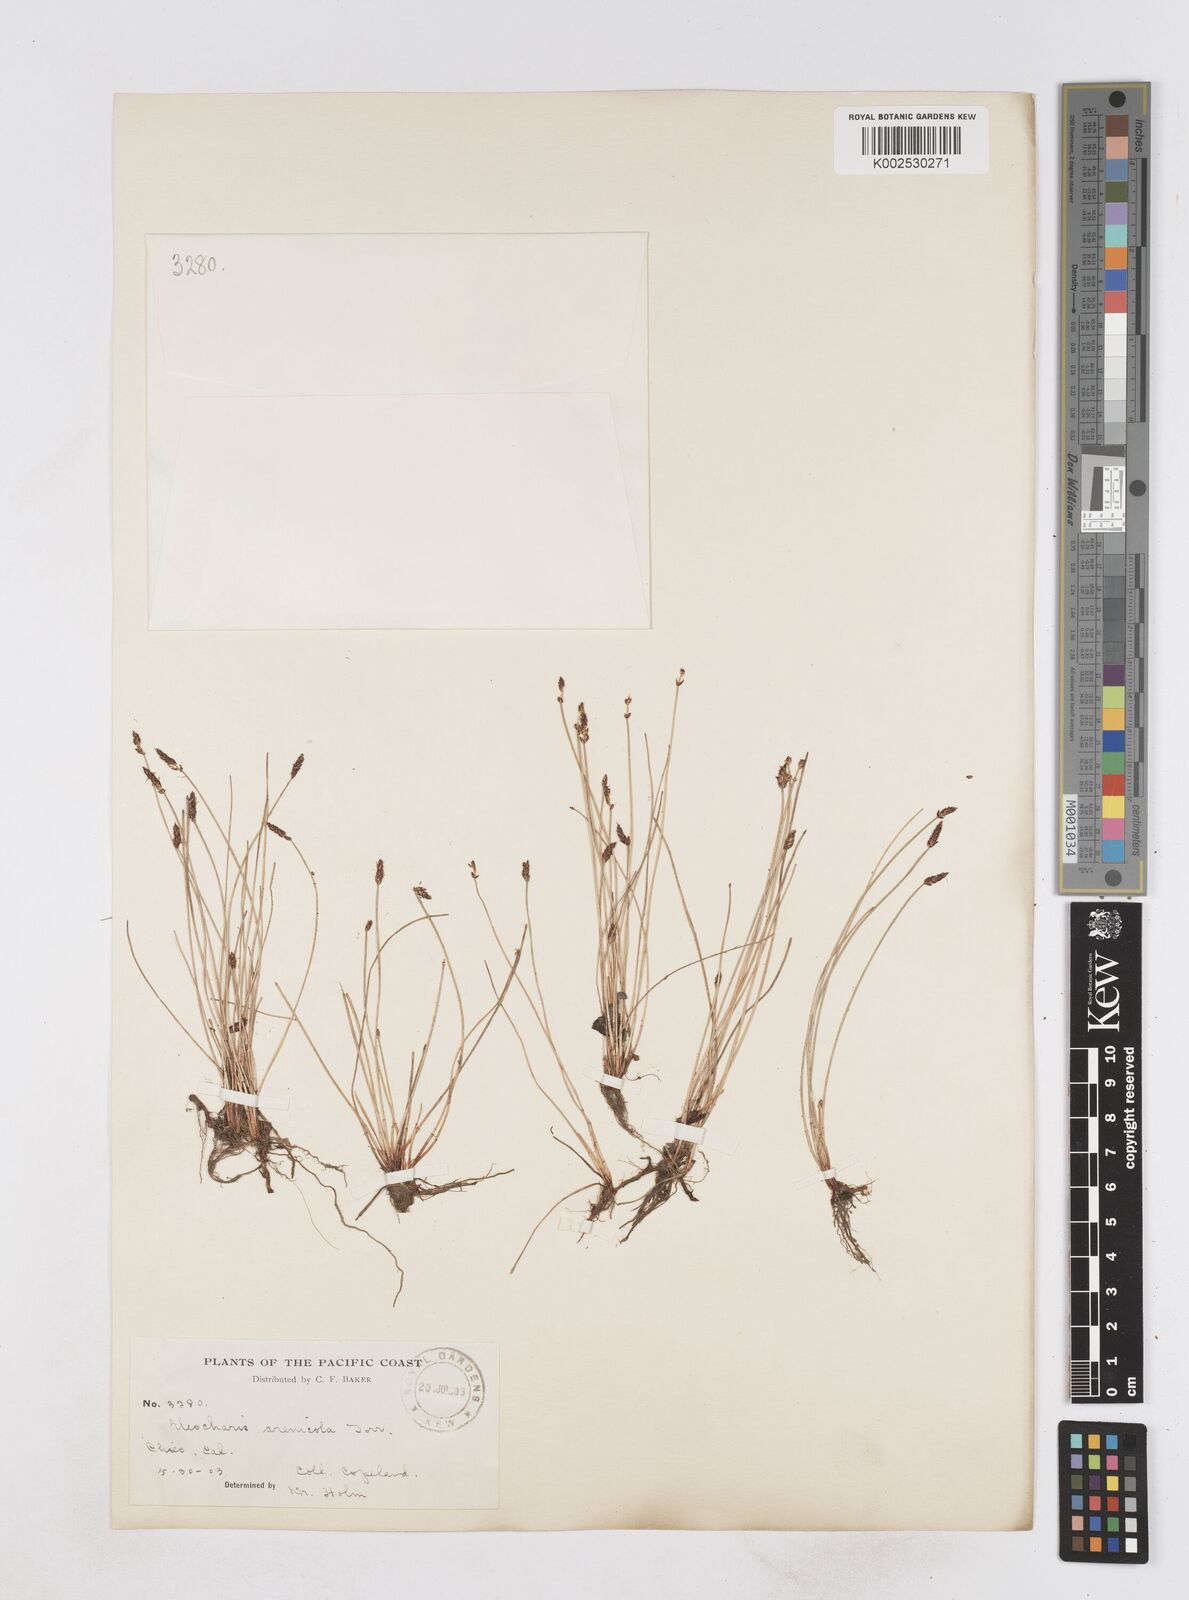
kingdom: Plantae
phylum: Tracheophyta
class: Liliopsida
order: Poales
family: Cyperaceae
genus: Eleocharis
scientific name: Eleocharis macounii
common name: Macoun's spikerush
